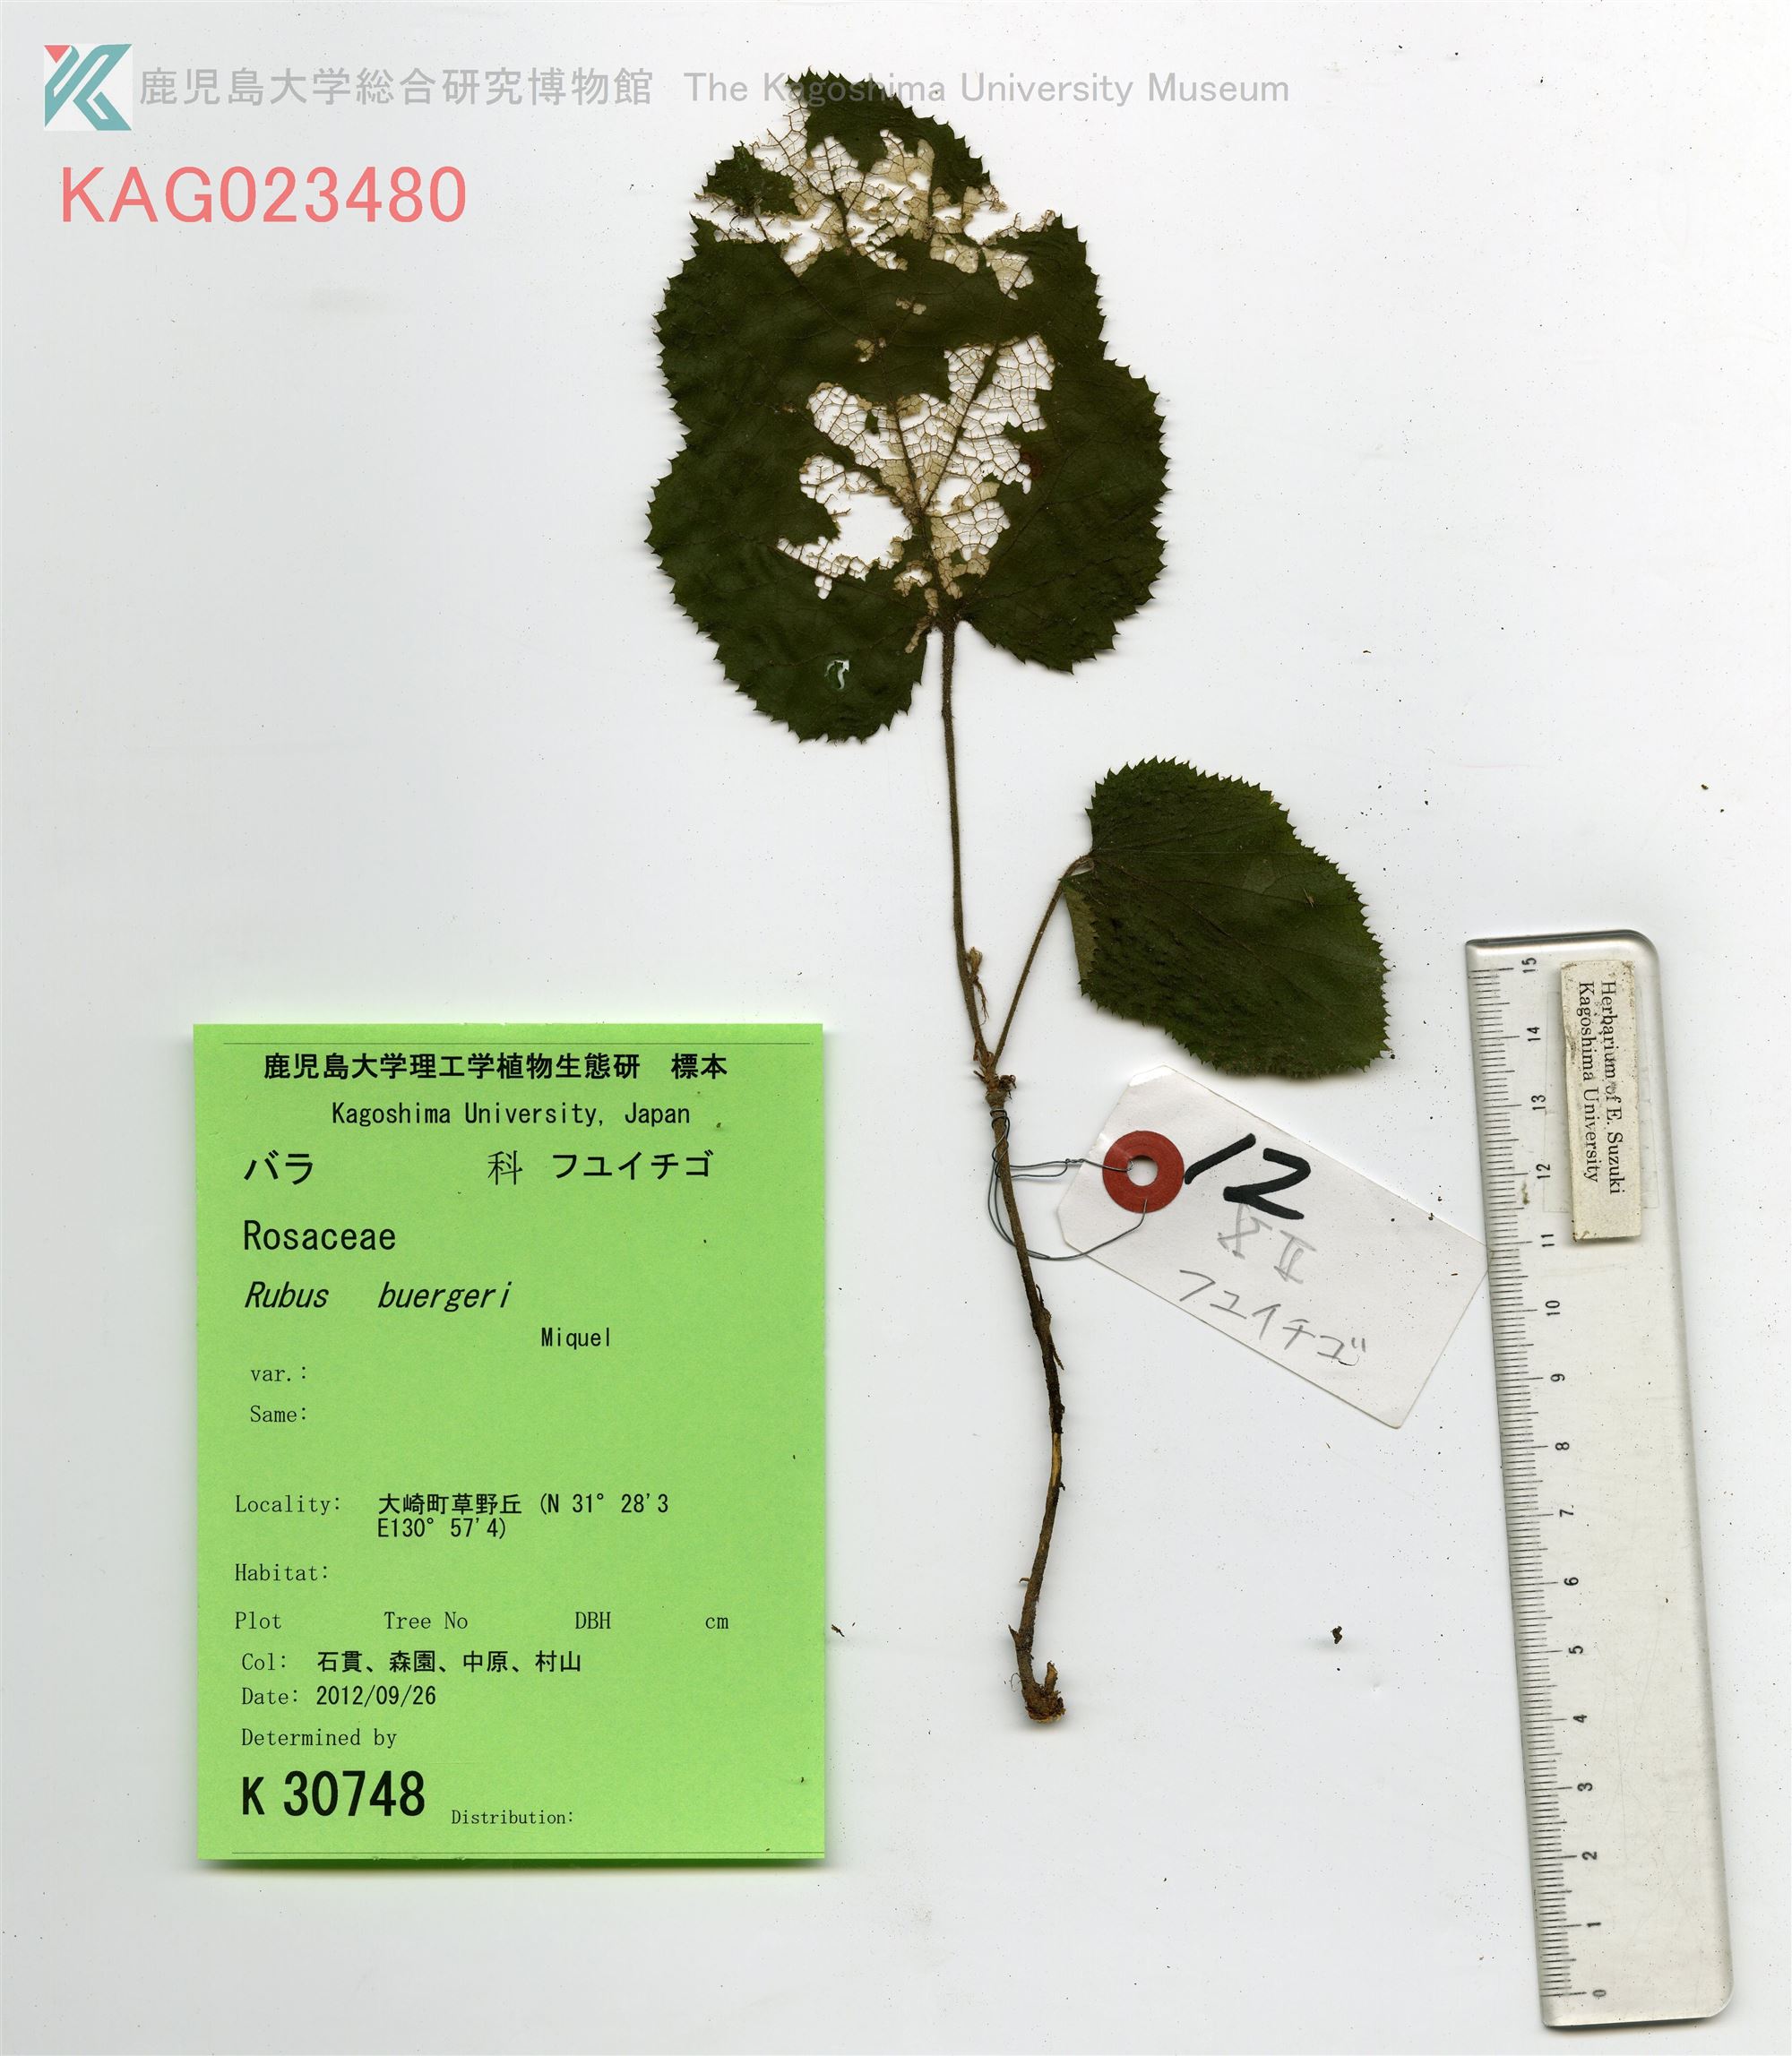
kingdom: Plantae
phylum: Tracheophyta
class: Magnoliopsida
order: Rosales
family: Rosaceae
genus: Rubus
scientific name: Rubus buergeri
